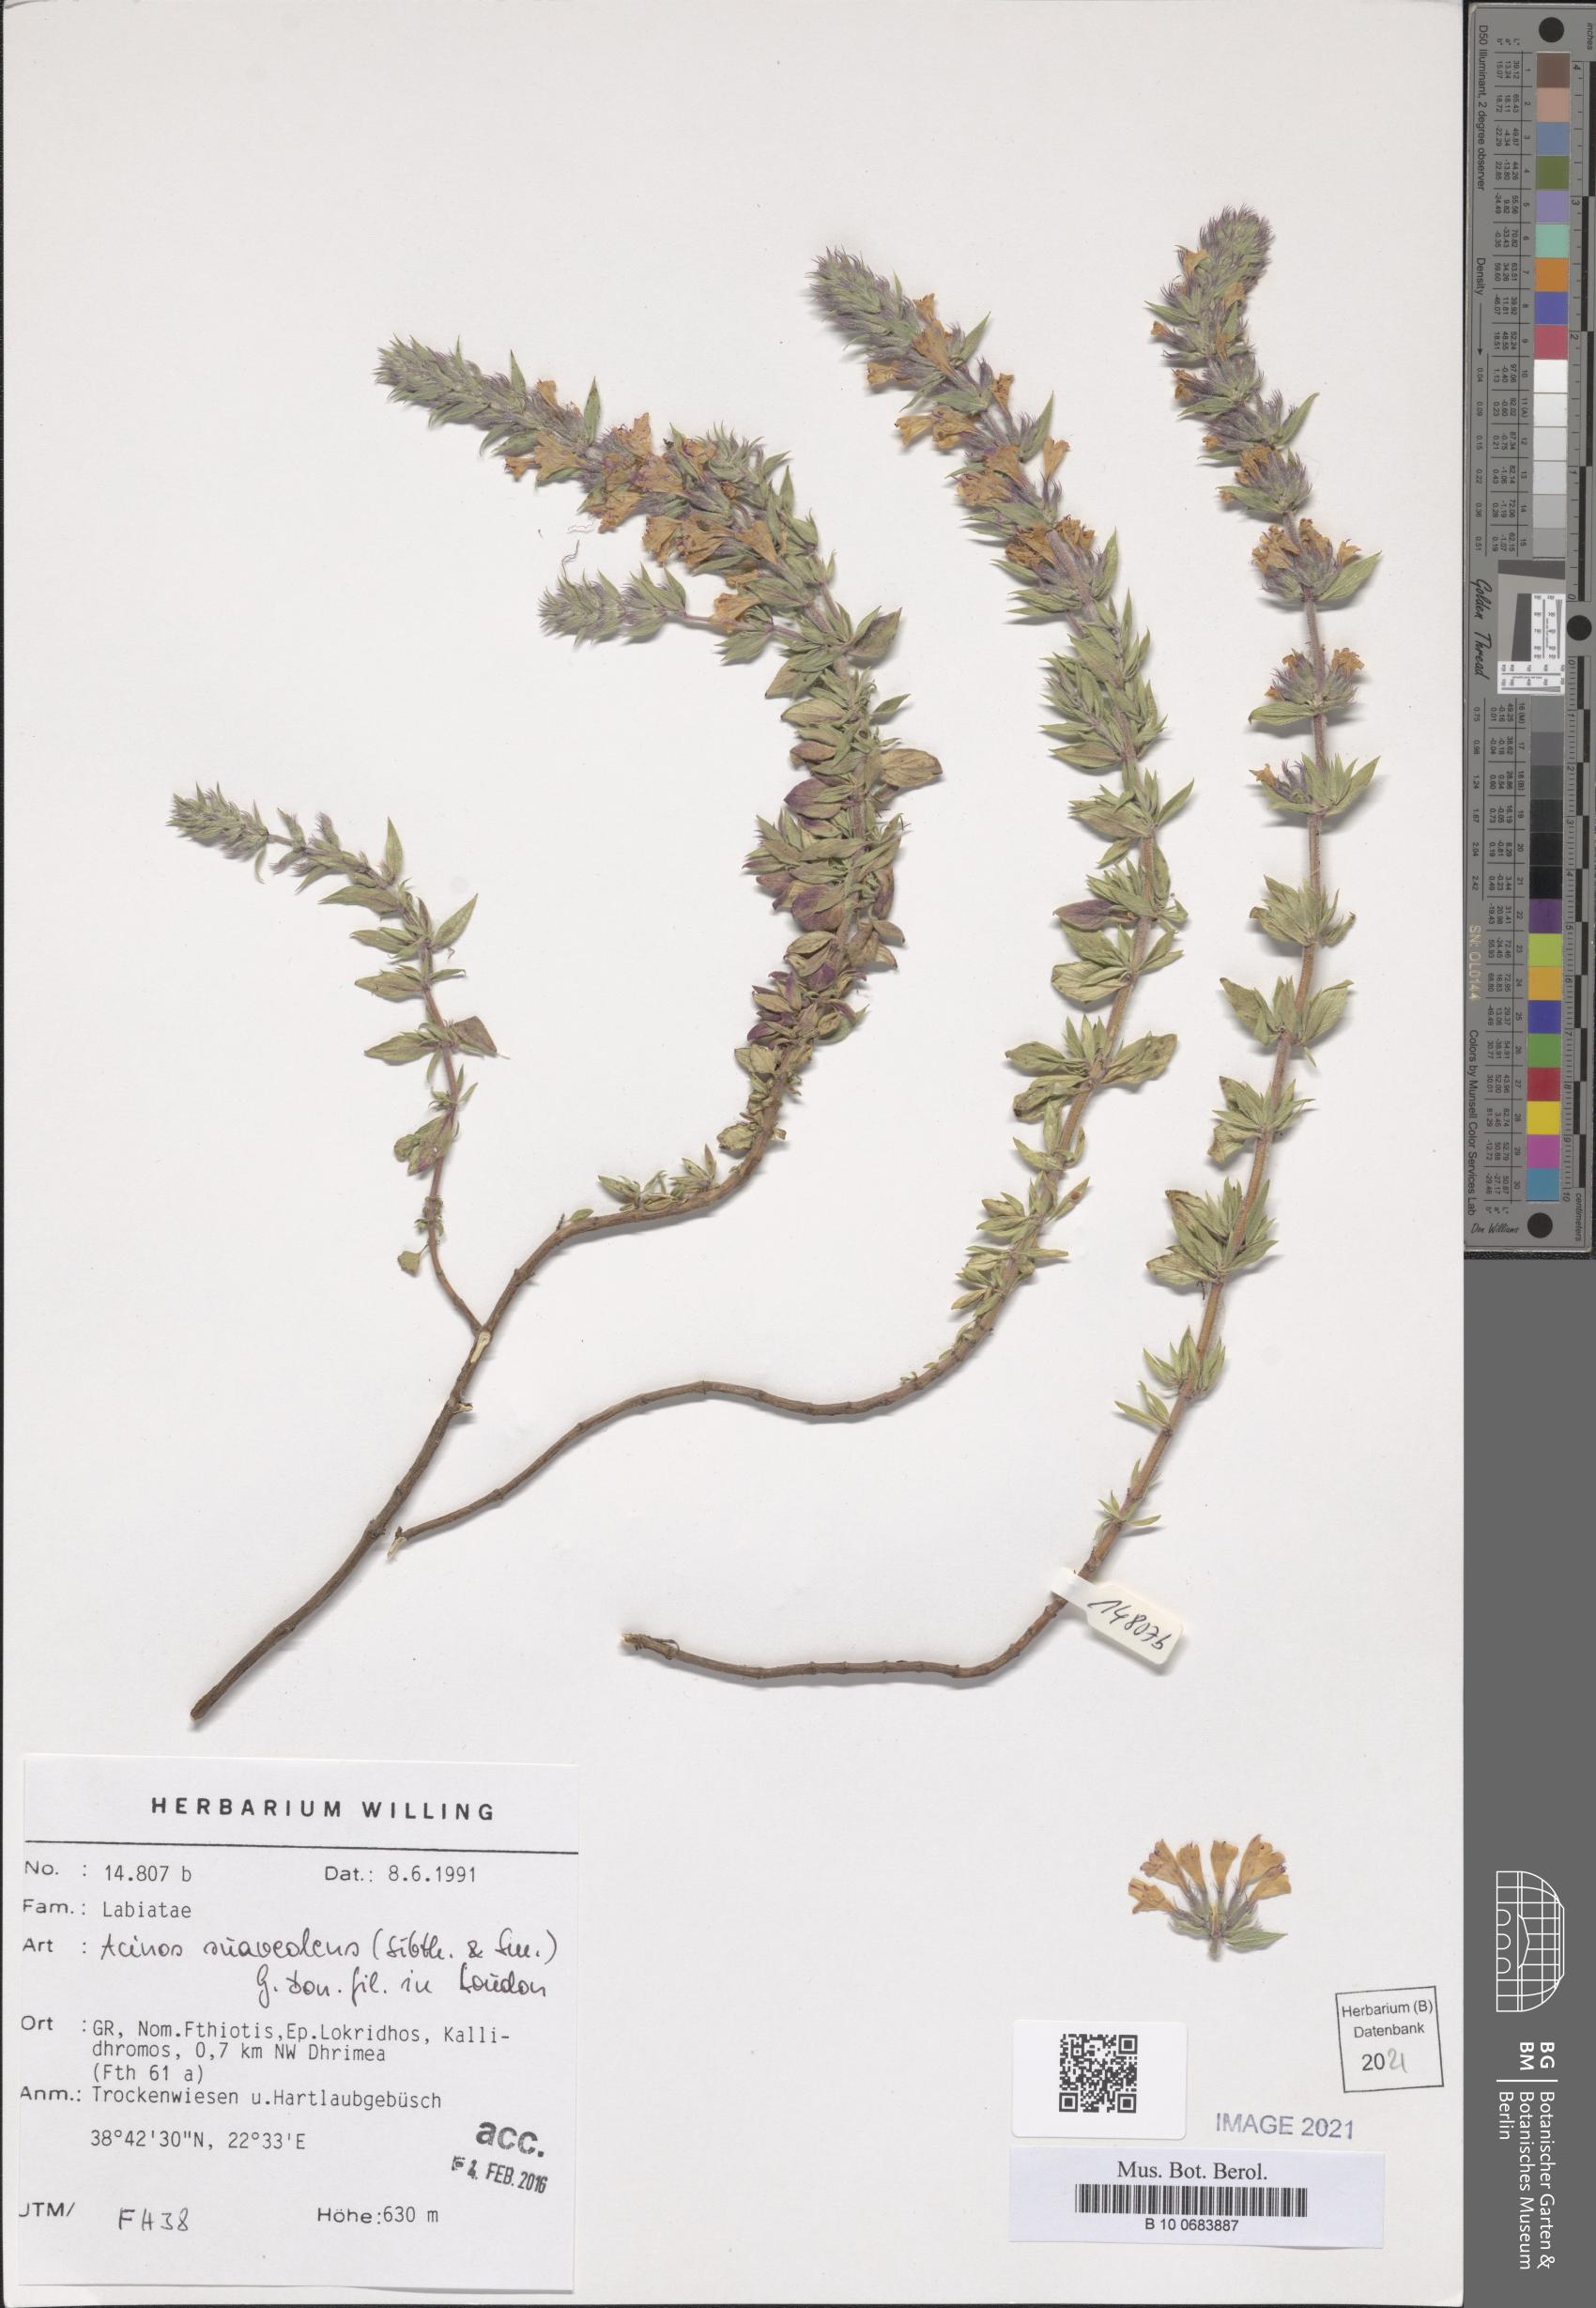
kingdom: Plantae
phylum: Tracheophyta
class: Magnoliopsida
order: Lamiales
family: Lamiaceae
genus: Clinopodium
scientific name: Clinopodium suaveolens
